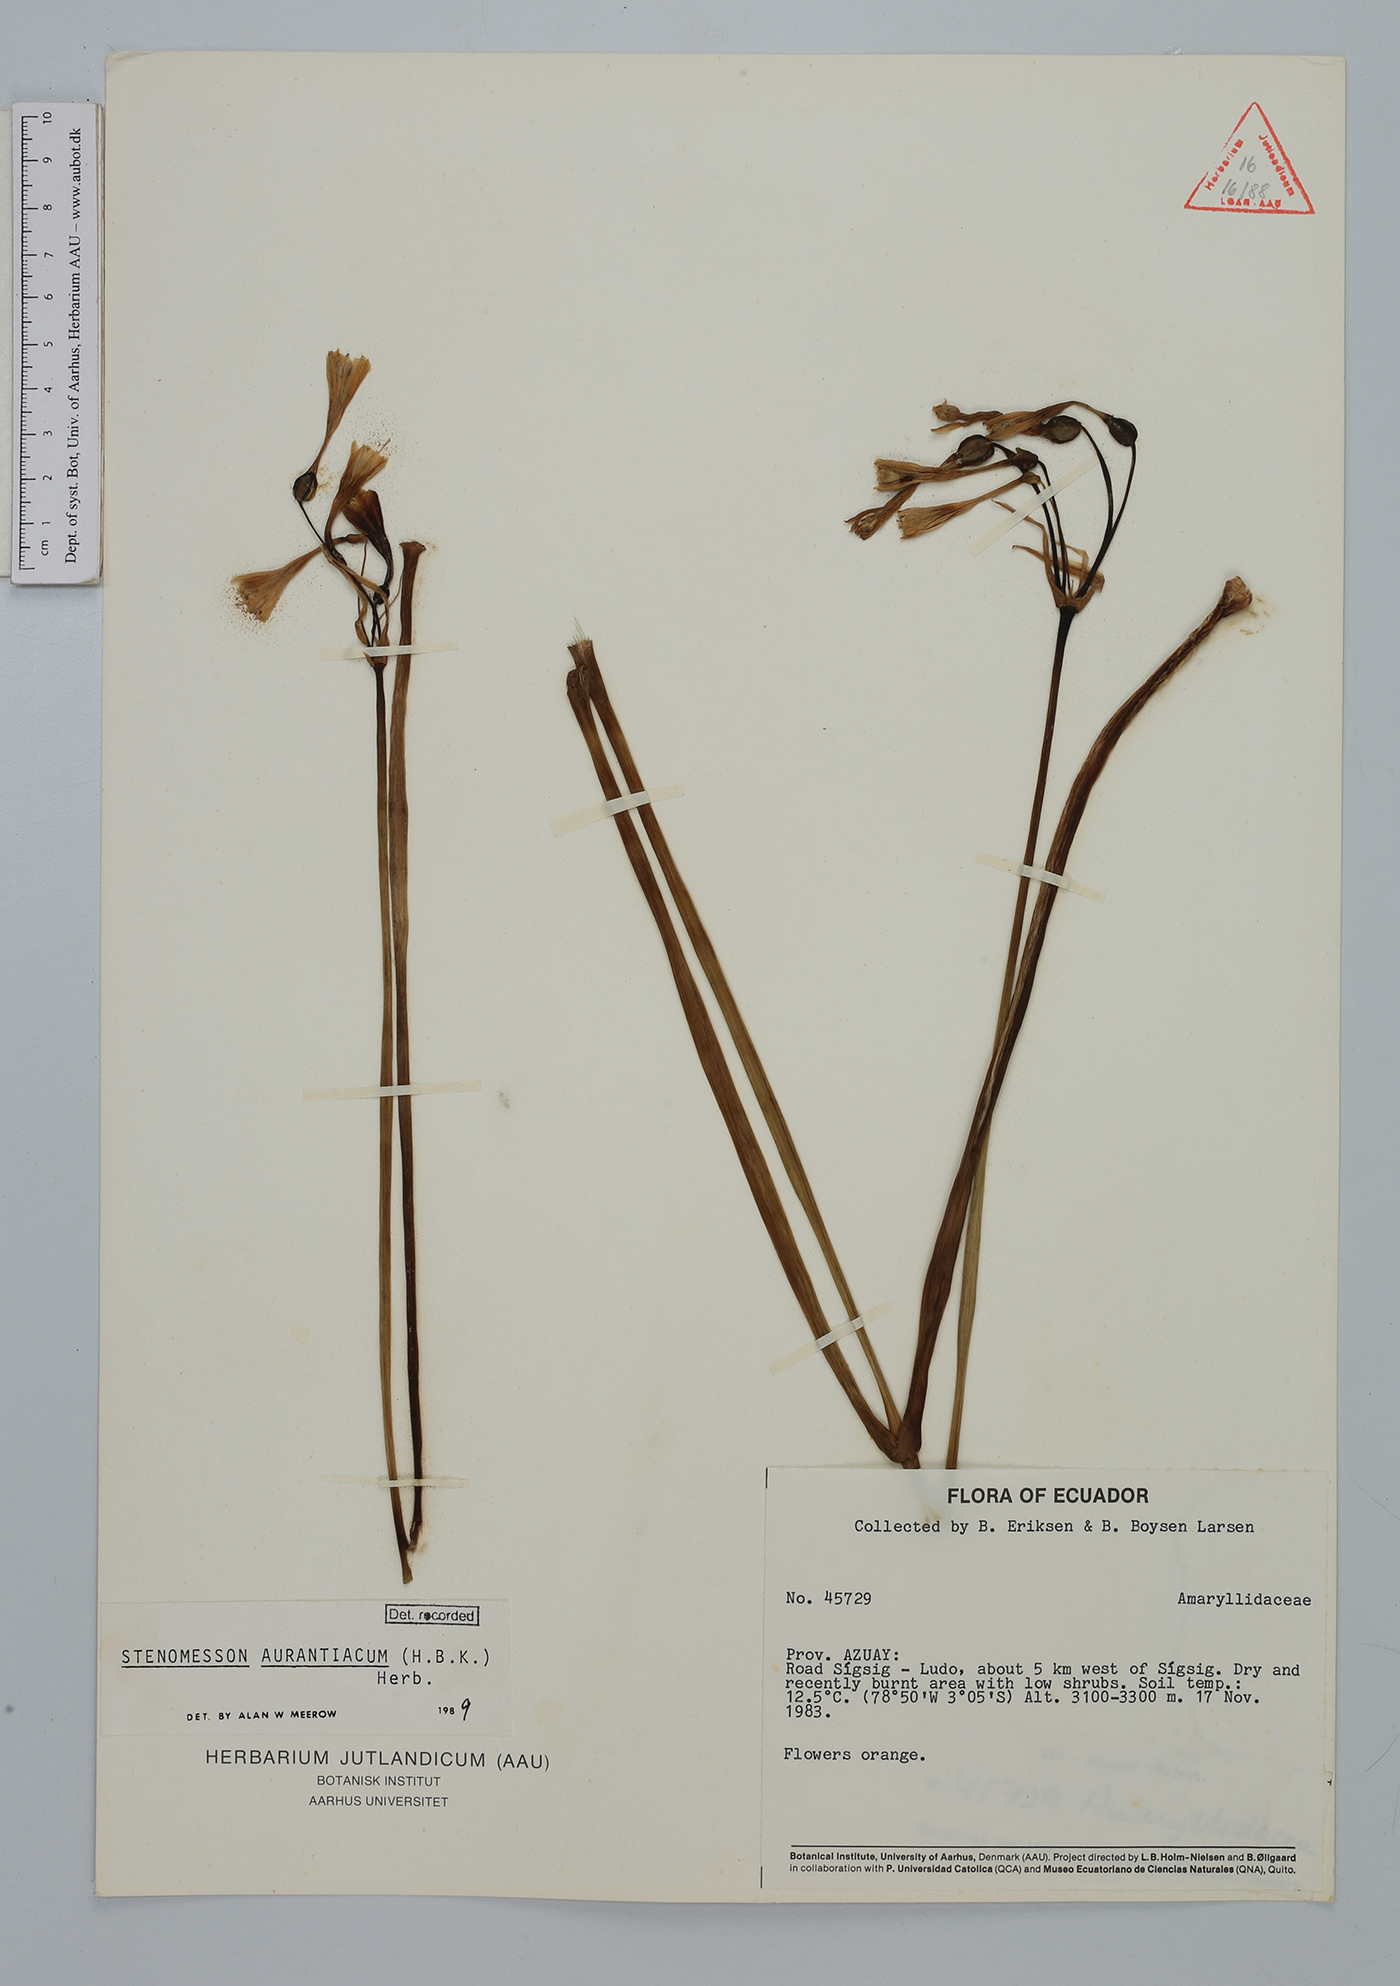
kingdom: Plantae
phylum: Tracheophyta
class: Liliopsida
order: Asparagales
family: Amaryllidaceae
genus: Stenomesson
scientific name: Stenomesson aurantiacum
